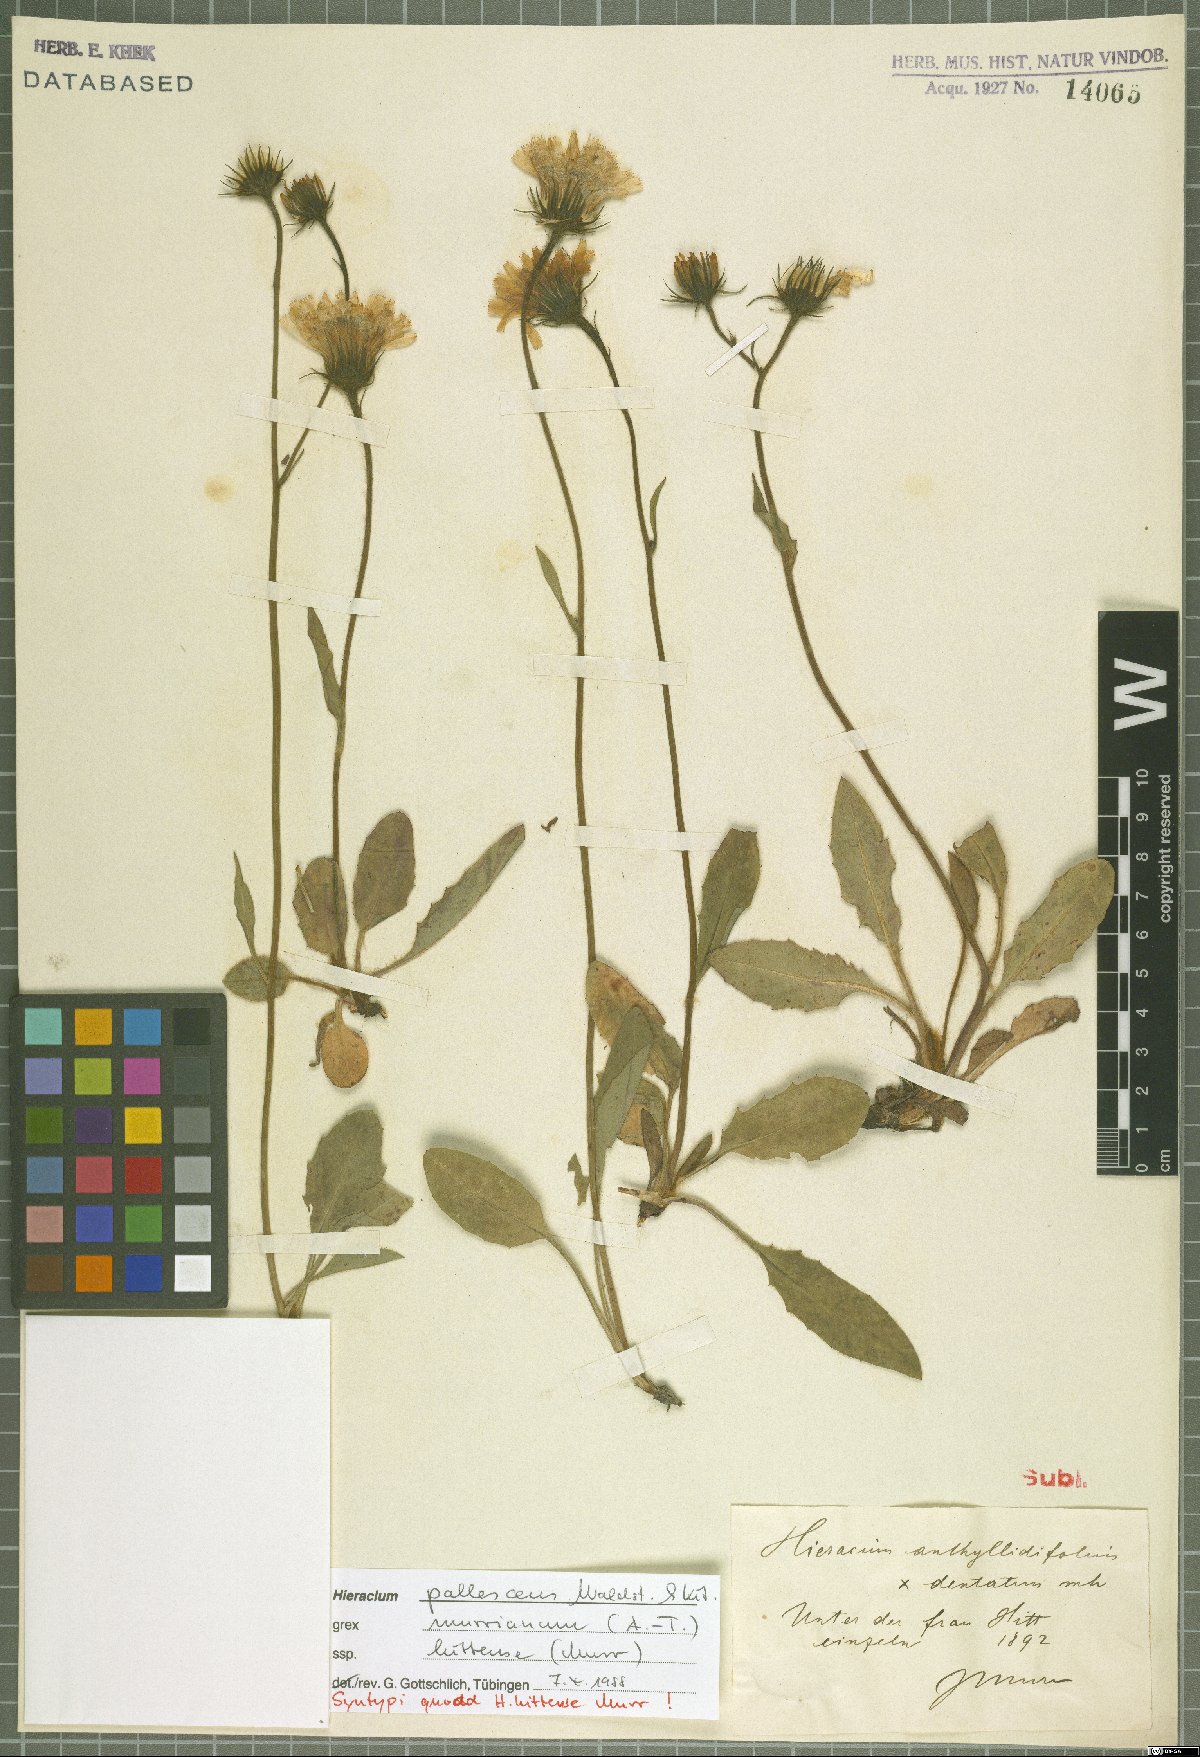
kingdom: Plantae
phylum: Tracheophyta
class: Magnoliopsida
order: Asterales
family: Asteraceae
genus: Hieracium
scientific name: Hieracium pallescens
